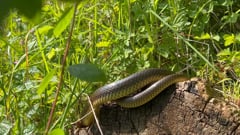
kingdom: Animalia
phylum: Chordata
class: Squamata
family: Colubridae
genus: Zamenis
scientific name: Zamenis longissimus
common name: Aesculapean snake
